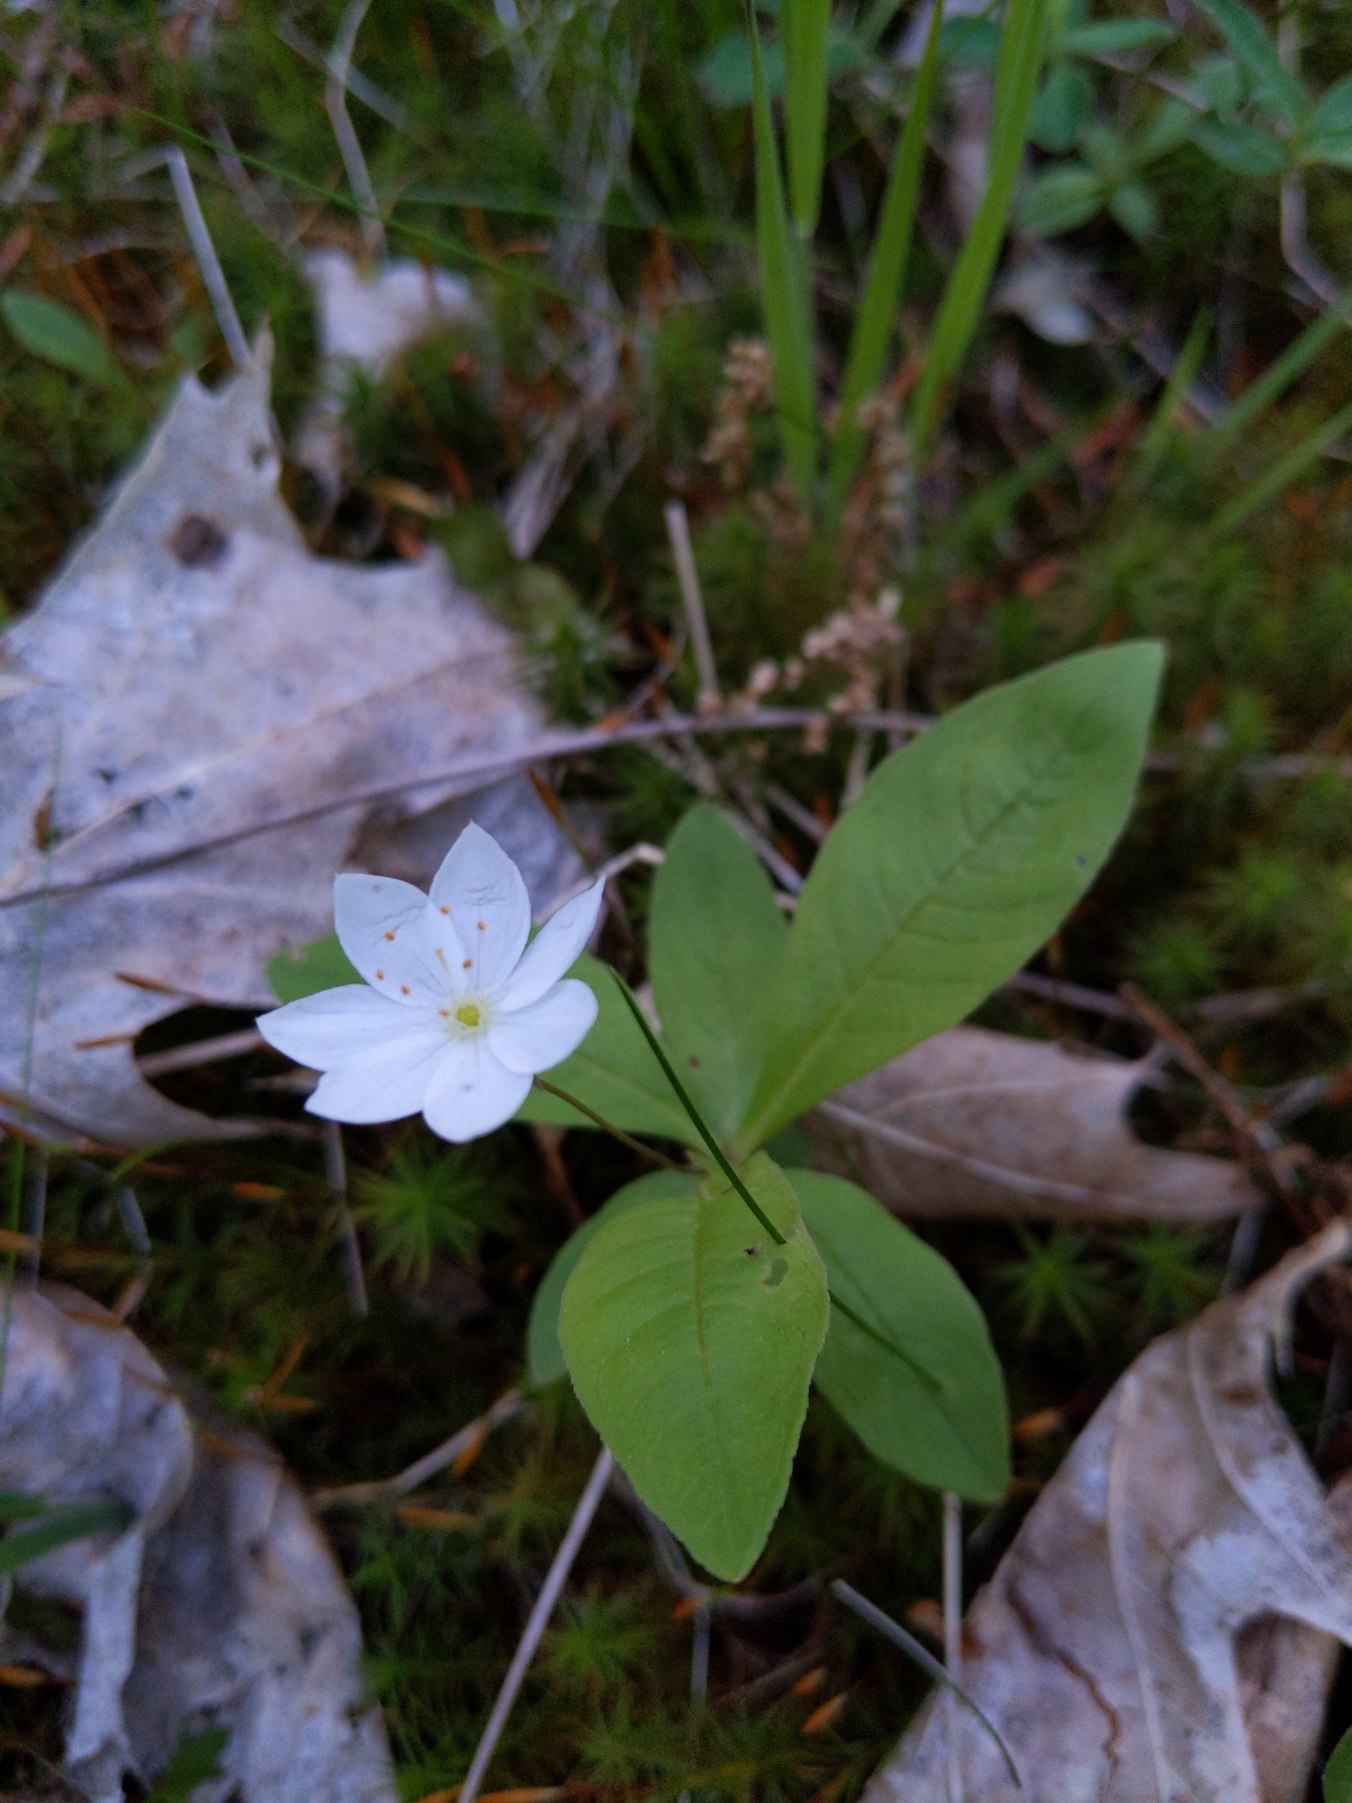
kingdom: Plantae
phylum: Tracheophyta
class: Magnoliopsida
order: Ericales
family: Primulaceae
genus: Lysimachia
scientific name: Lysimachia europaea
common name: Skovstjerne
